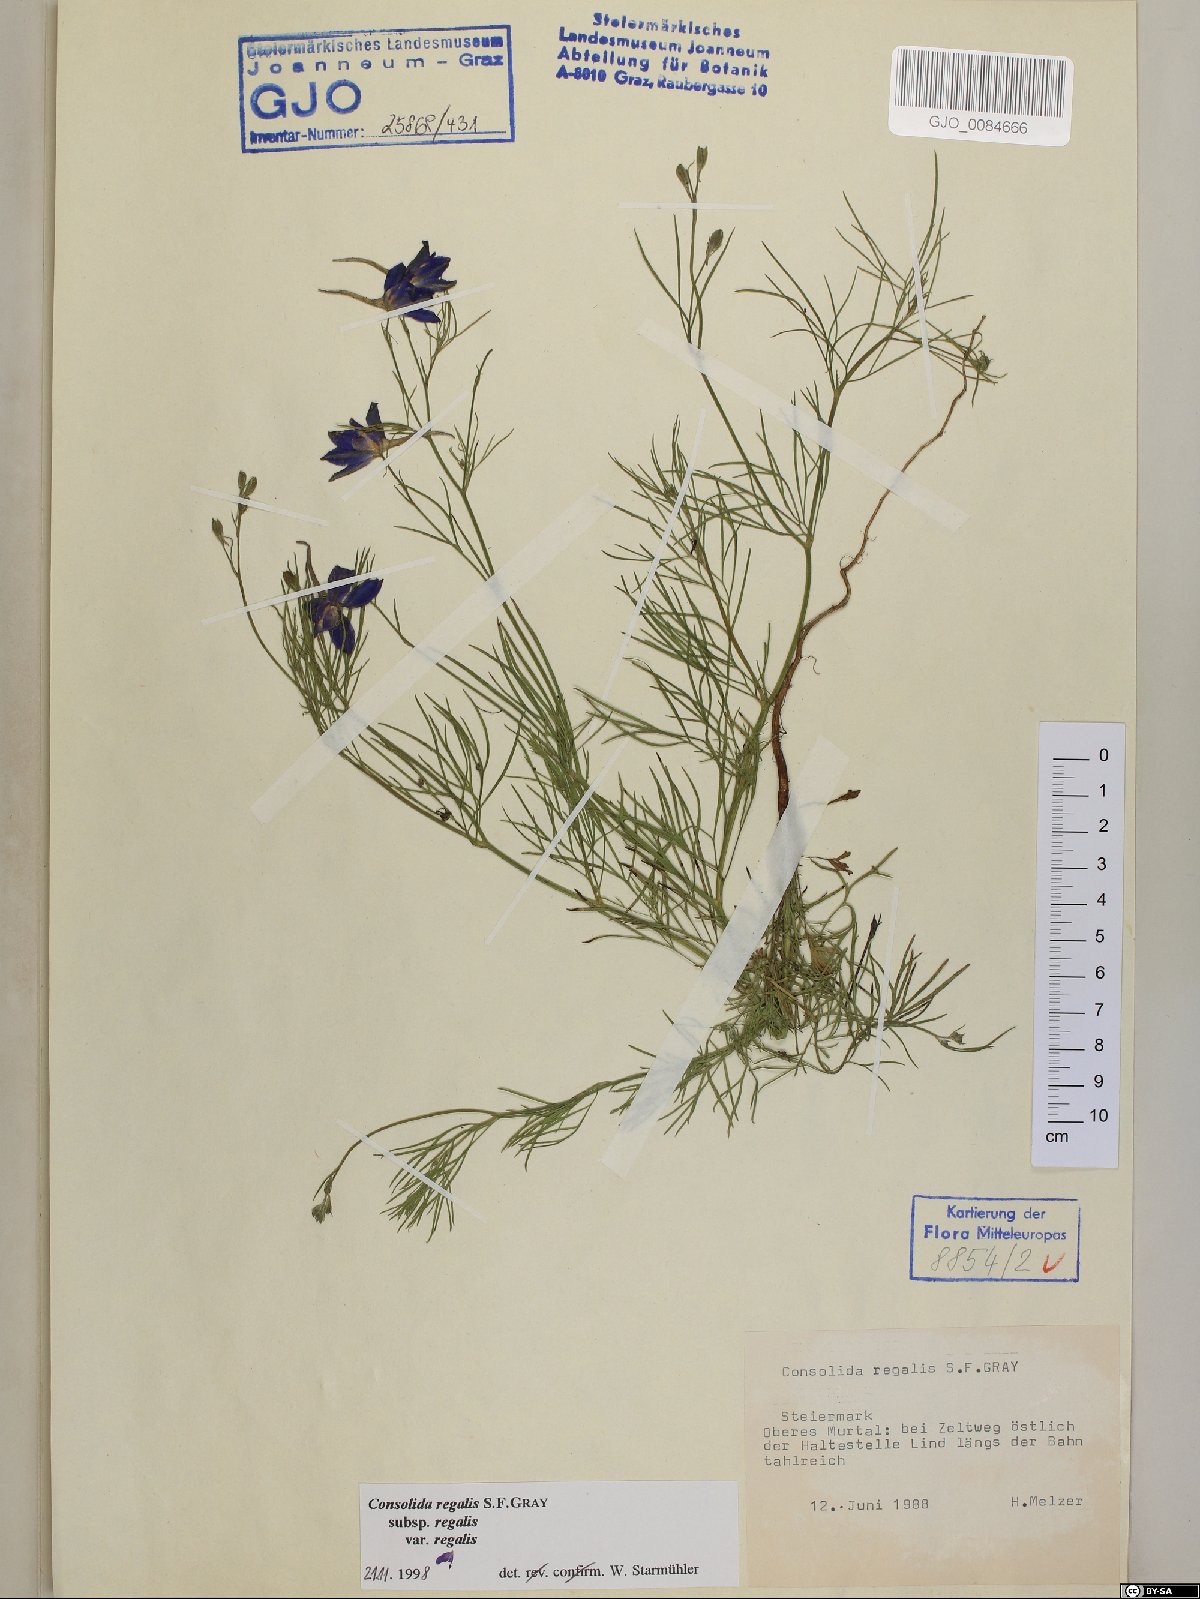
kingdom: Plantae
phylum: Tracheophyta
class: Magnoliopsida
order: Ranunculales
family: Ranunculaceae
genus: Delphinium
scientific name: Delphinium consolida
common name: Branching larkspur
